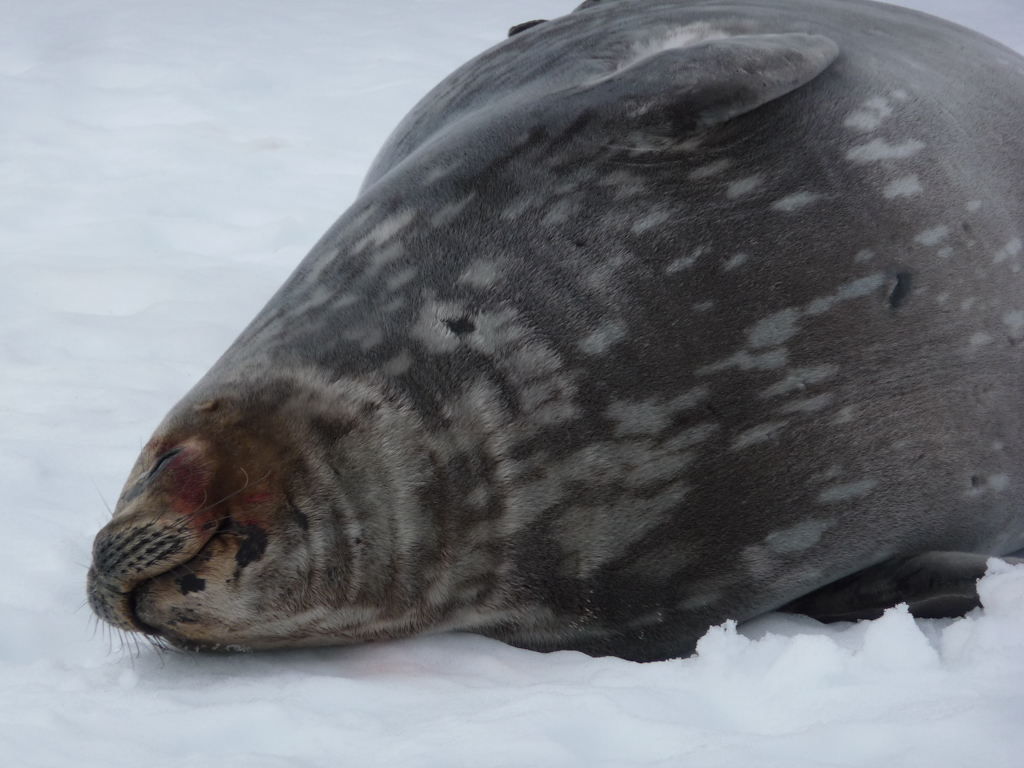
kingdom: Animalia
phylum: Chordata
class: Mammalia
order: Carnivora
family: Phocidae
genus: Leptonychotes
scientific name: Leptonychotes weddellii
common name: Weddell Seal
